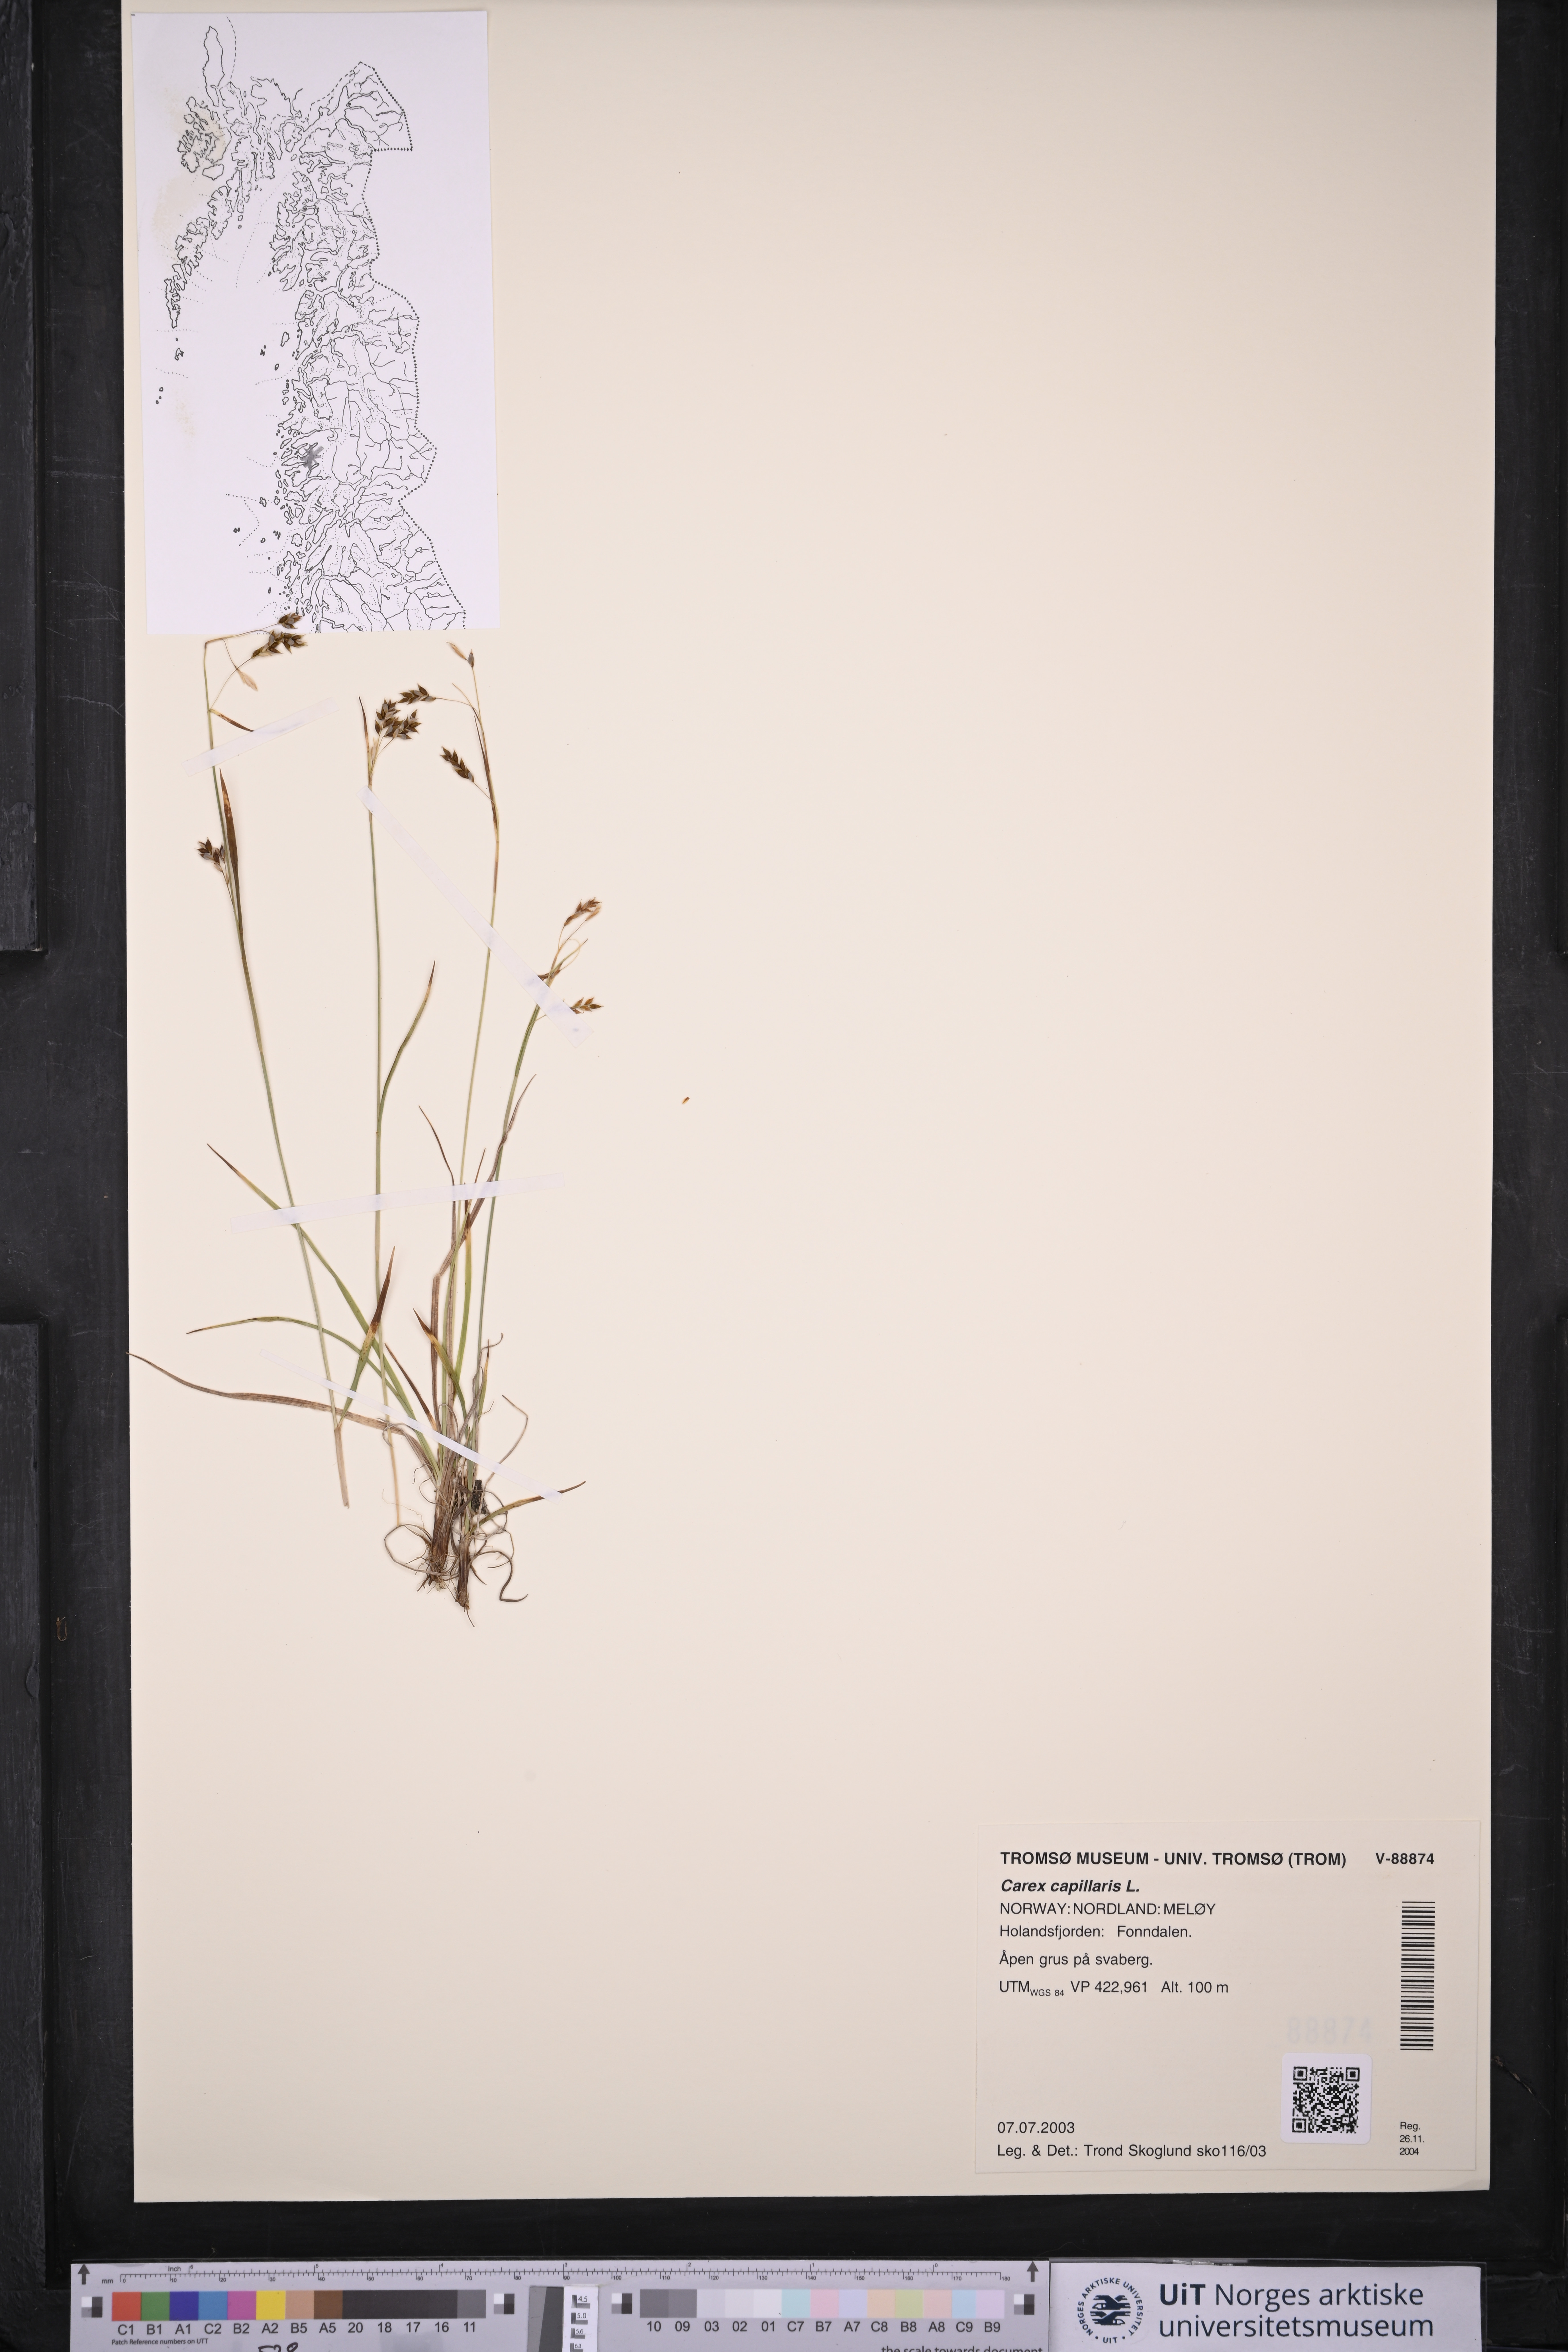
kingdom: Plantae
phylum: Tracheophyta
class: Liliopsida
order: Poales
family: Cyperaceae
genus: Carex
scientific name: Carex capillaris
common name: Hair sedge
